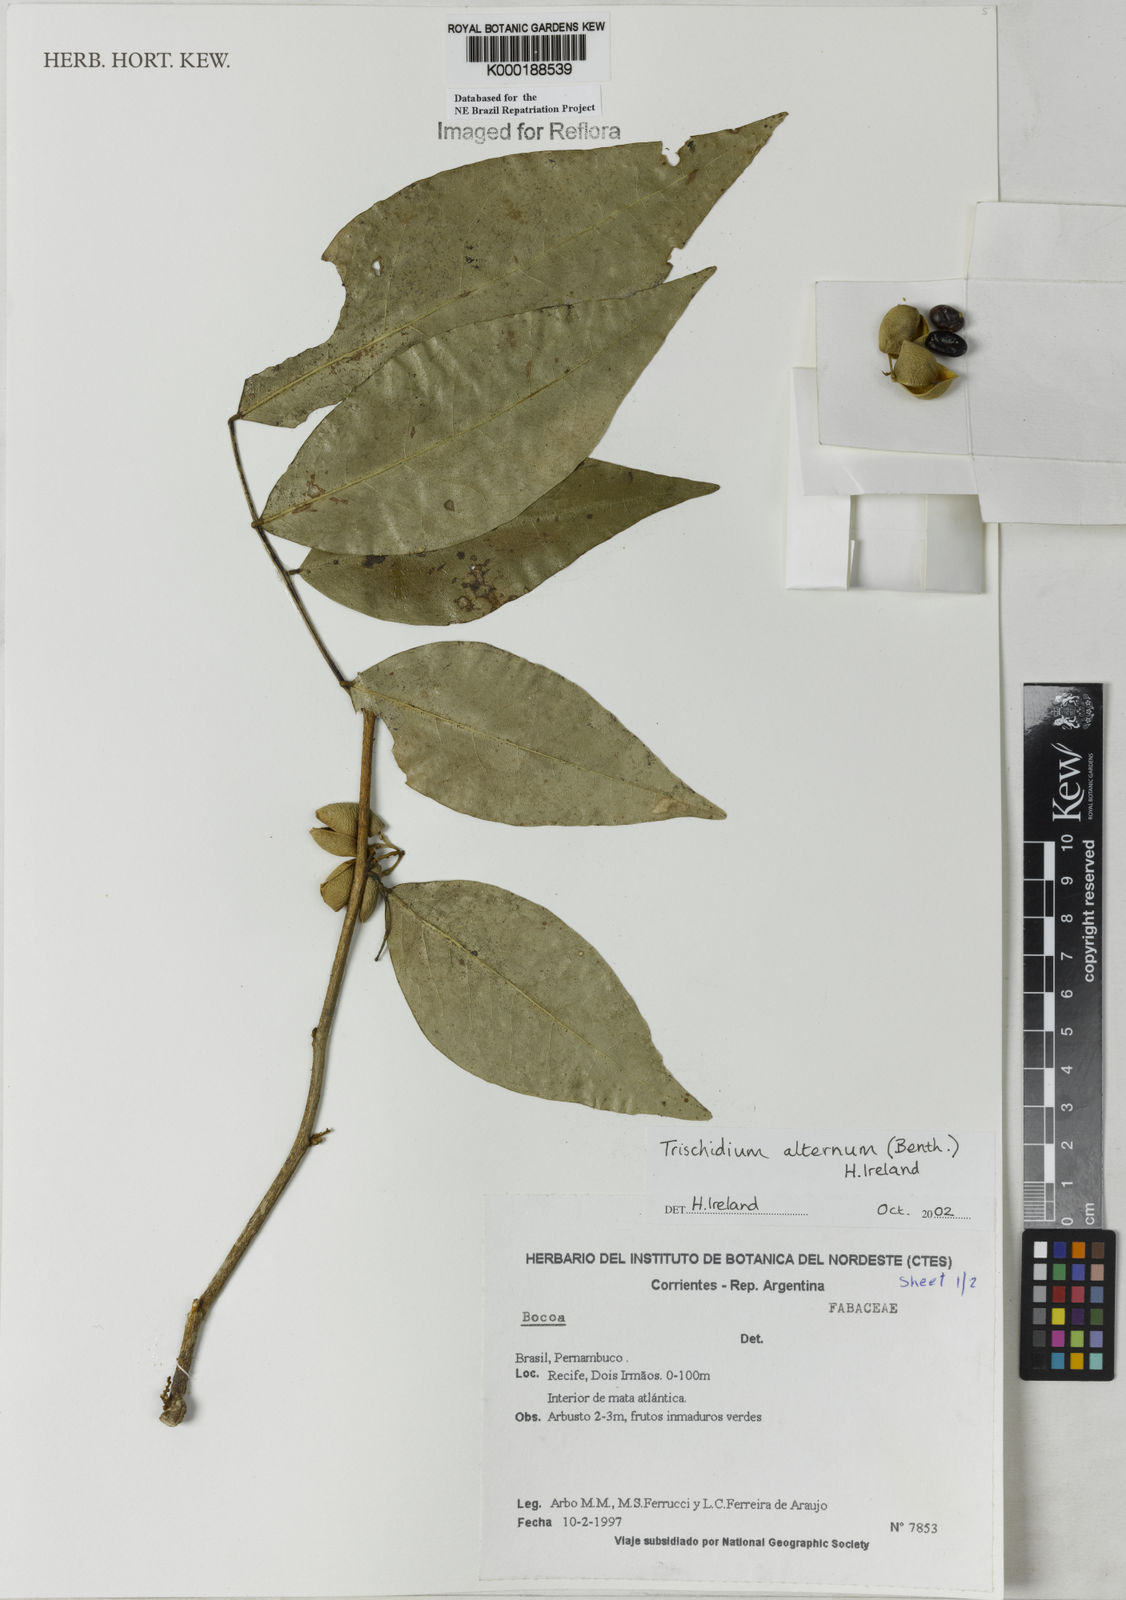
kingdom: Plantae
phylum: Tracheophyta
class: Magnoliopsida
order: Fabales
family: Fabaceae
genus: Trischidium
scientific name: Trischidium
